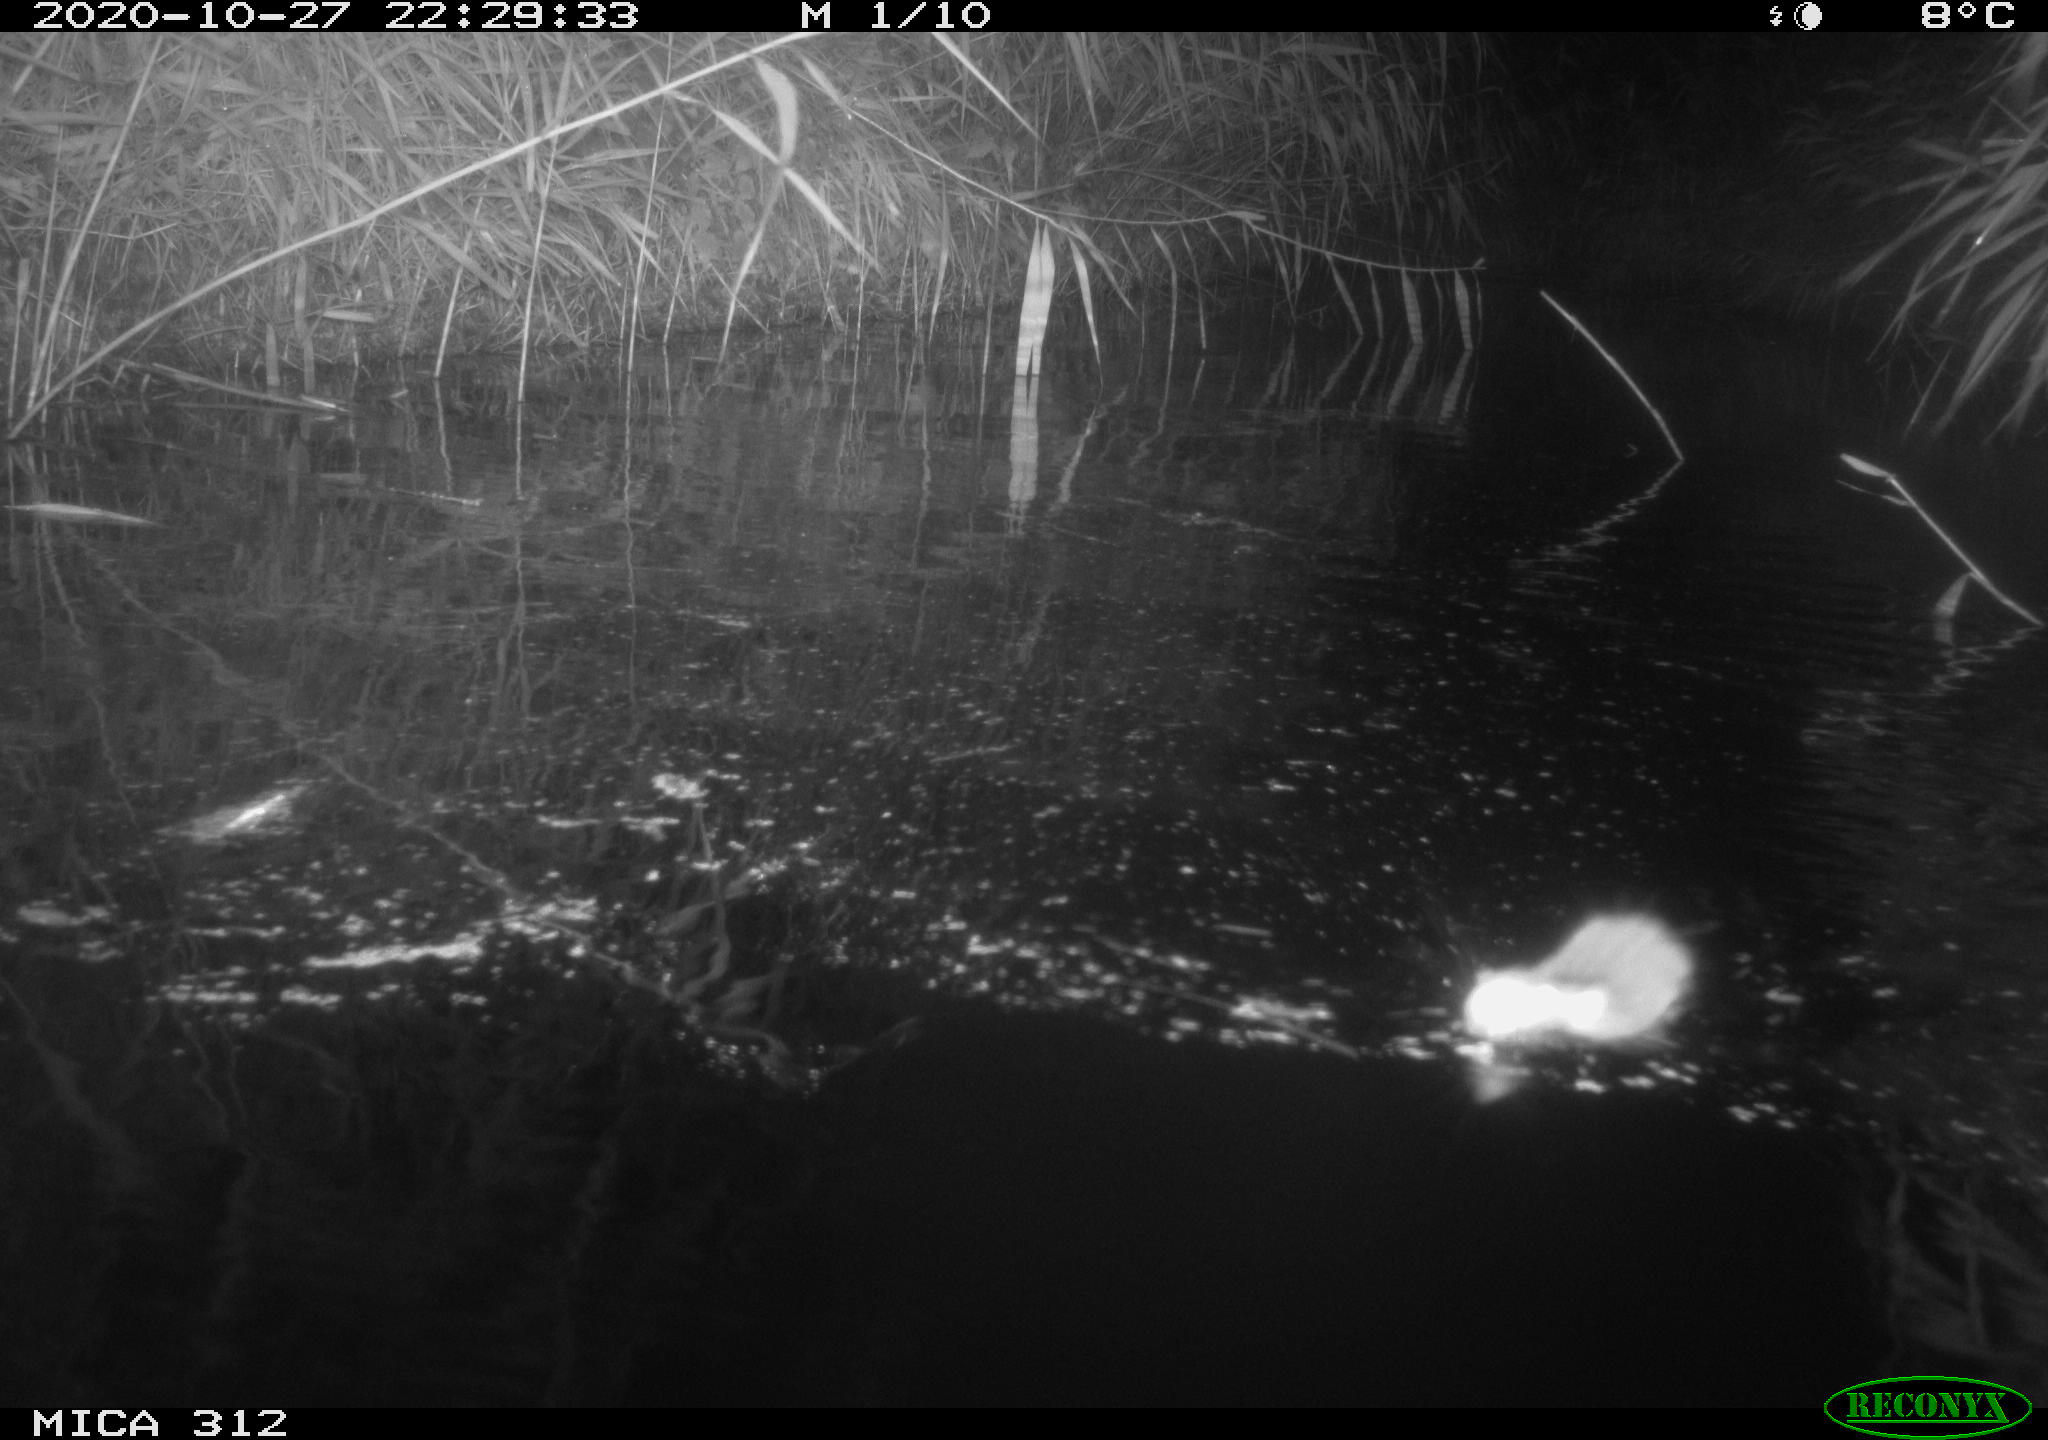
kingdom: Animalia
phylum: Chordata
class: Mammalia
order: Rodentia
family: Muridae
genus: Rattus
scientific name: Rattus norvegicus
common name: Brown rat
